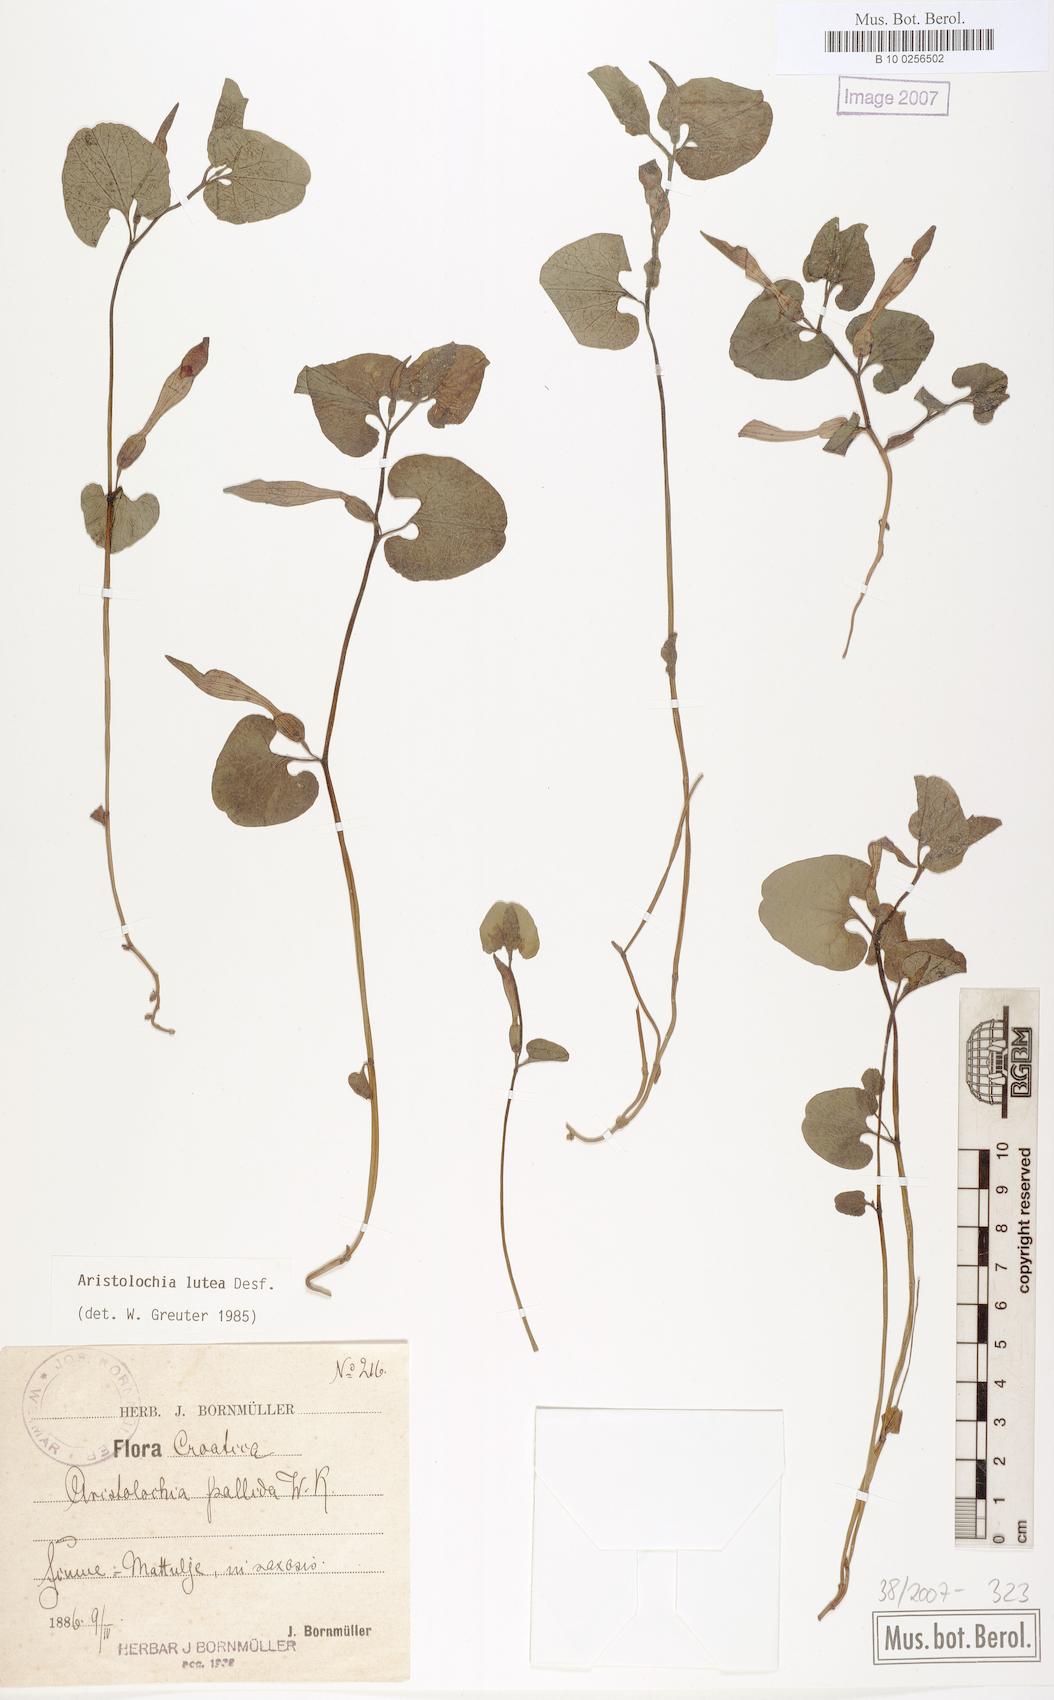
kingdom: Plantae
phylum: Tracheophyta
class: Magnoliopsida
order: Piperales
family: Aristolochiaceae
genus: Aristolochia
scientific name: Aristolochia lutea
